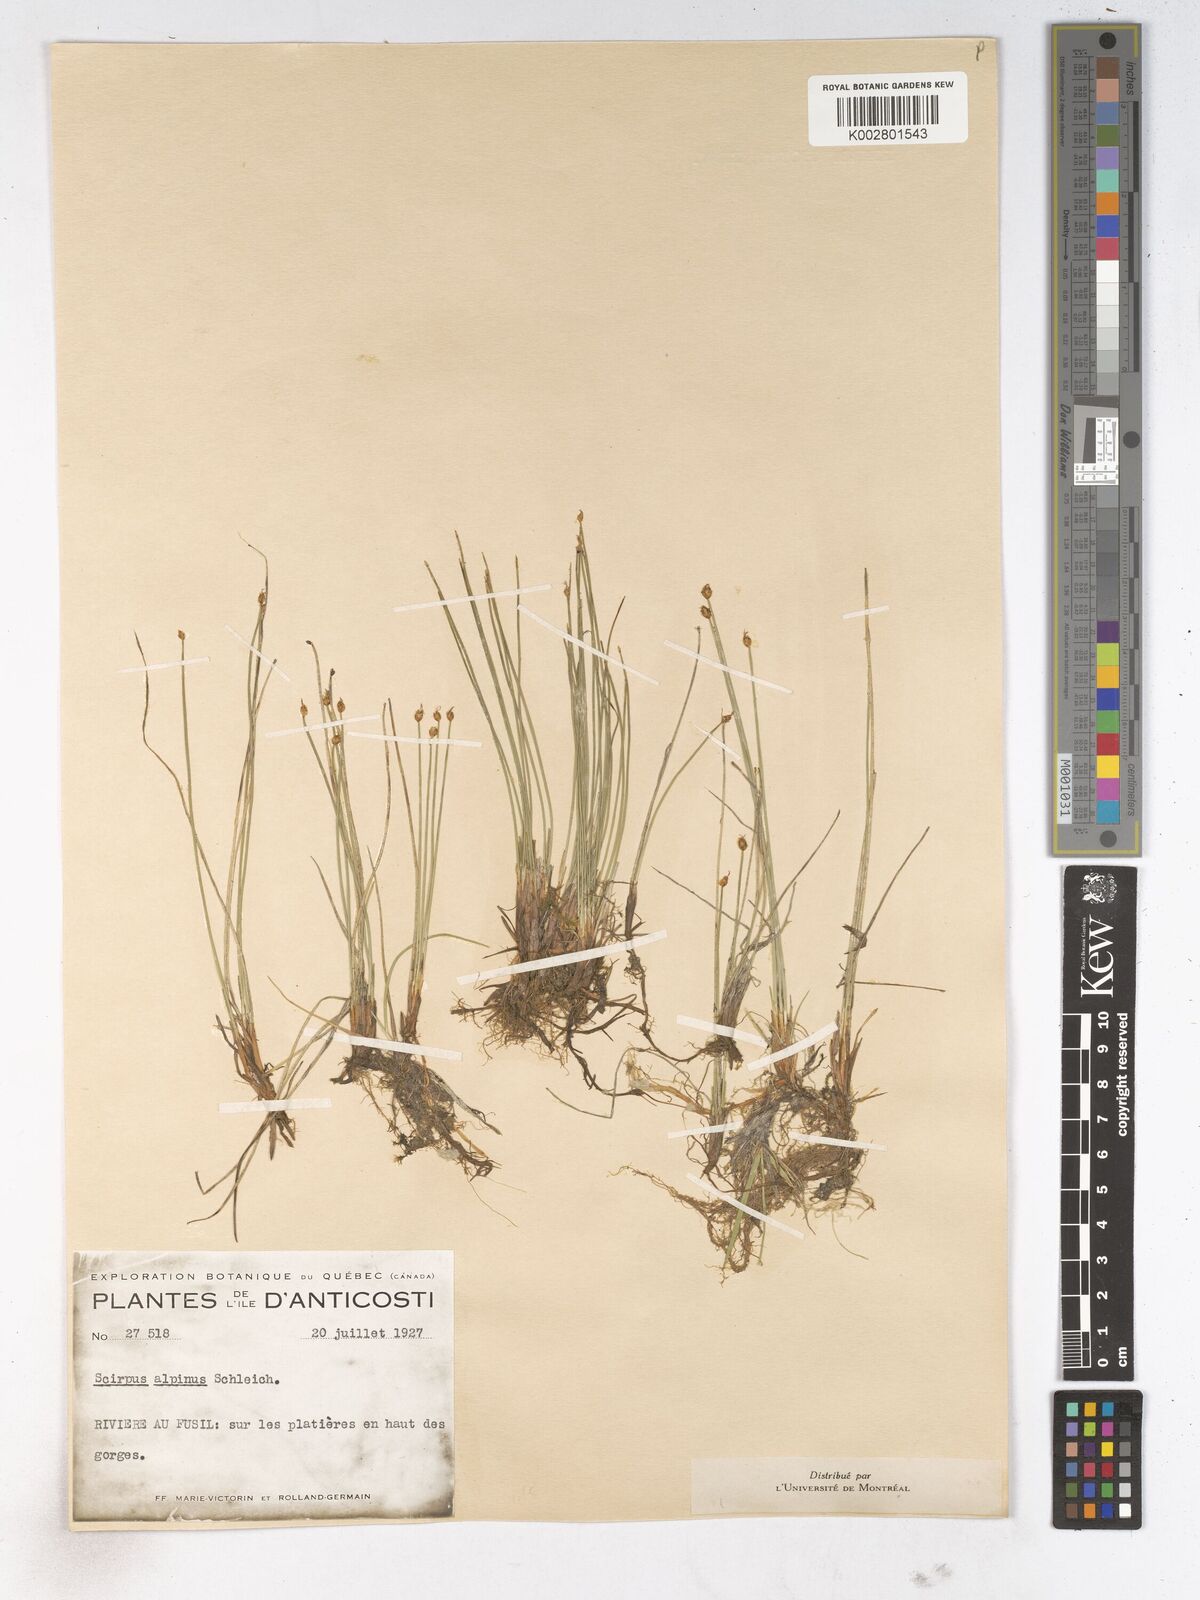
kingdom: Plantae
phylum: Tracheophyta
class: Liliopsida
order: Poales
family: Cyperaceae
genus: Trichophorum
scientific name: Trichophorum pumilum
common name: Rolland's bulrush
